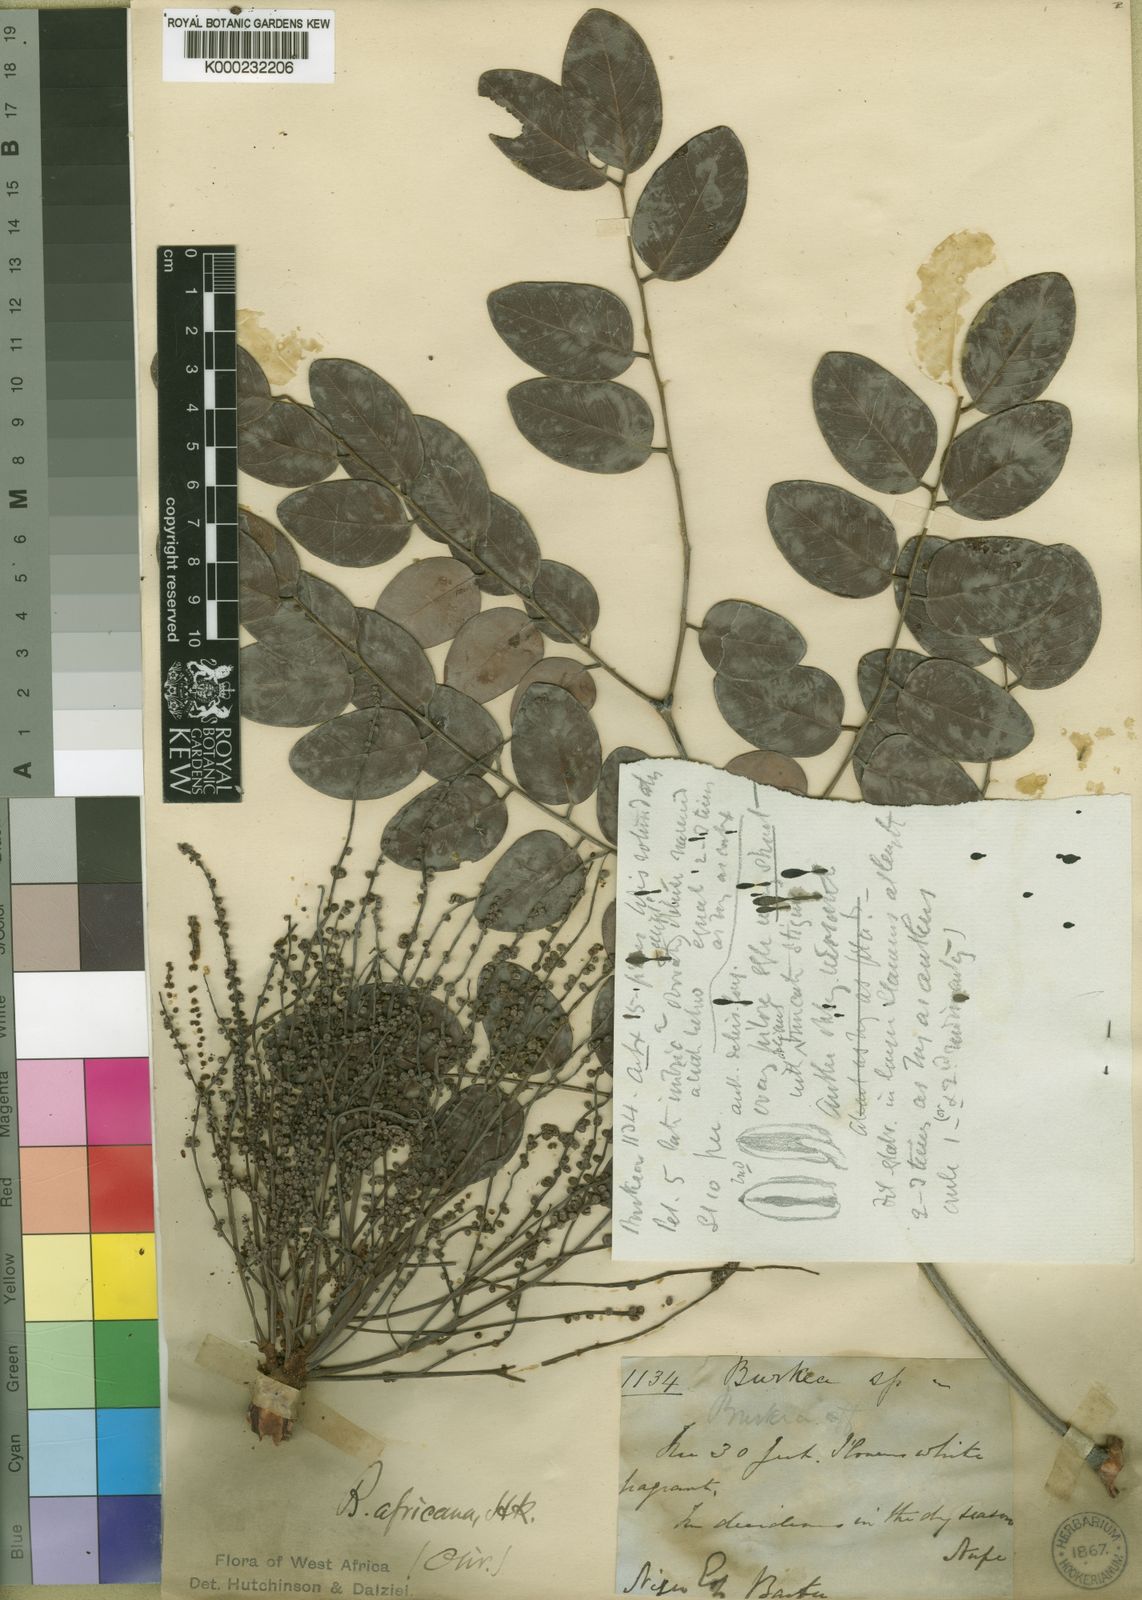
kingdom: Plantae
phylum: Tracheophyta
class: Magnoliopsida
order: Fabales
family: Fabaceae
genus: Burkea
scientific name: Burkea africana
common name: Mkalati tree
